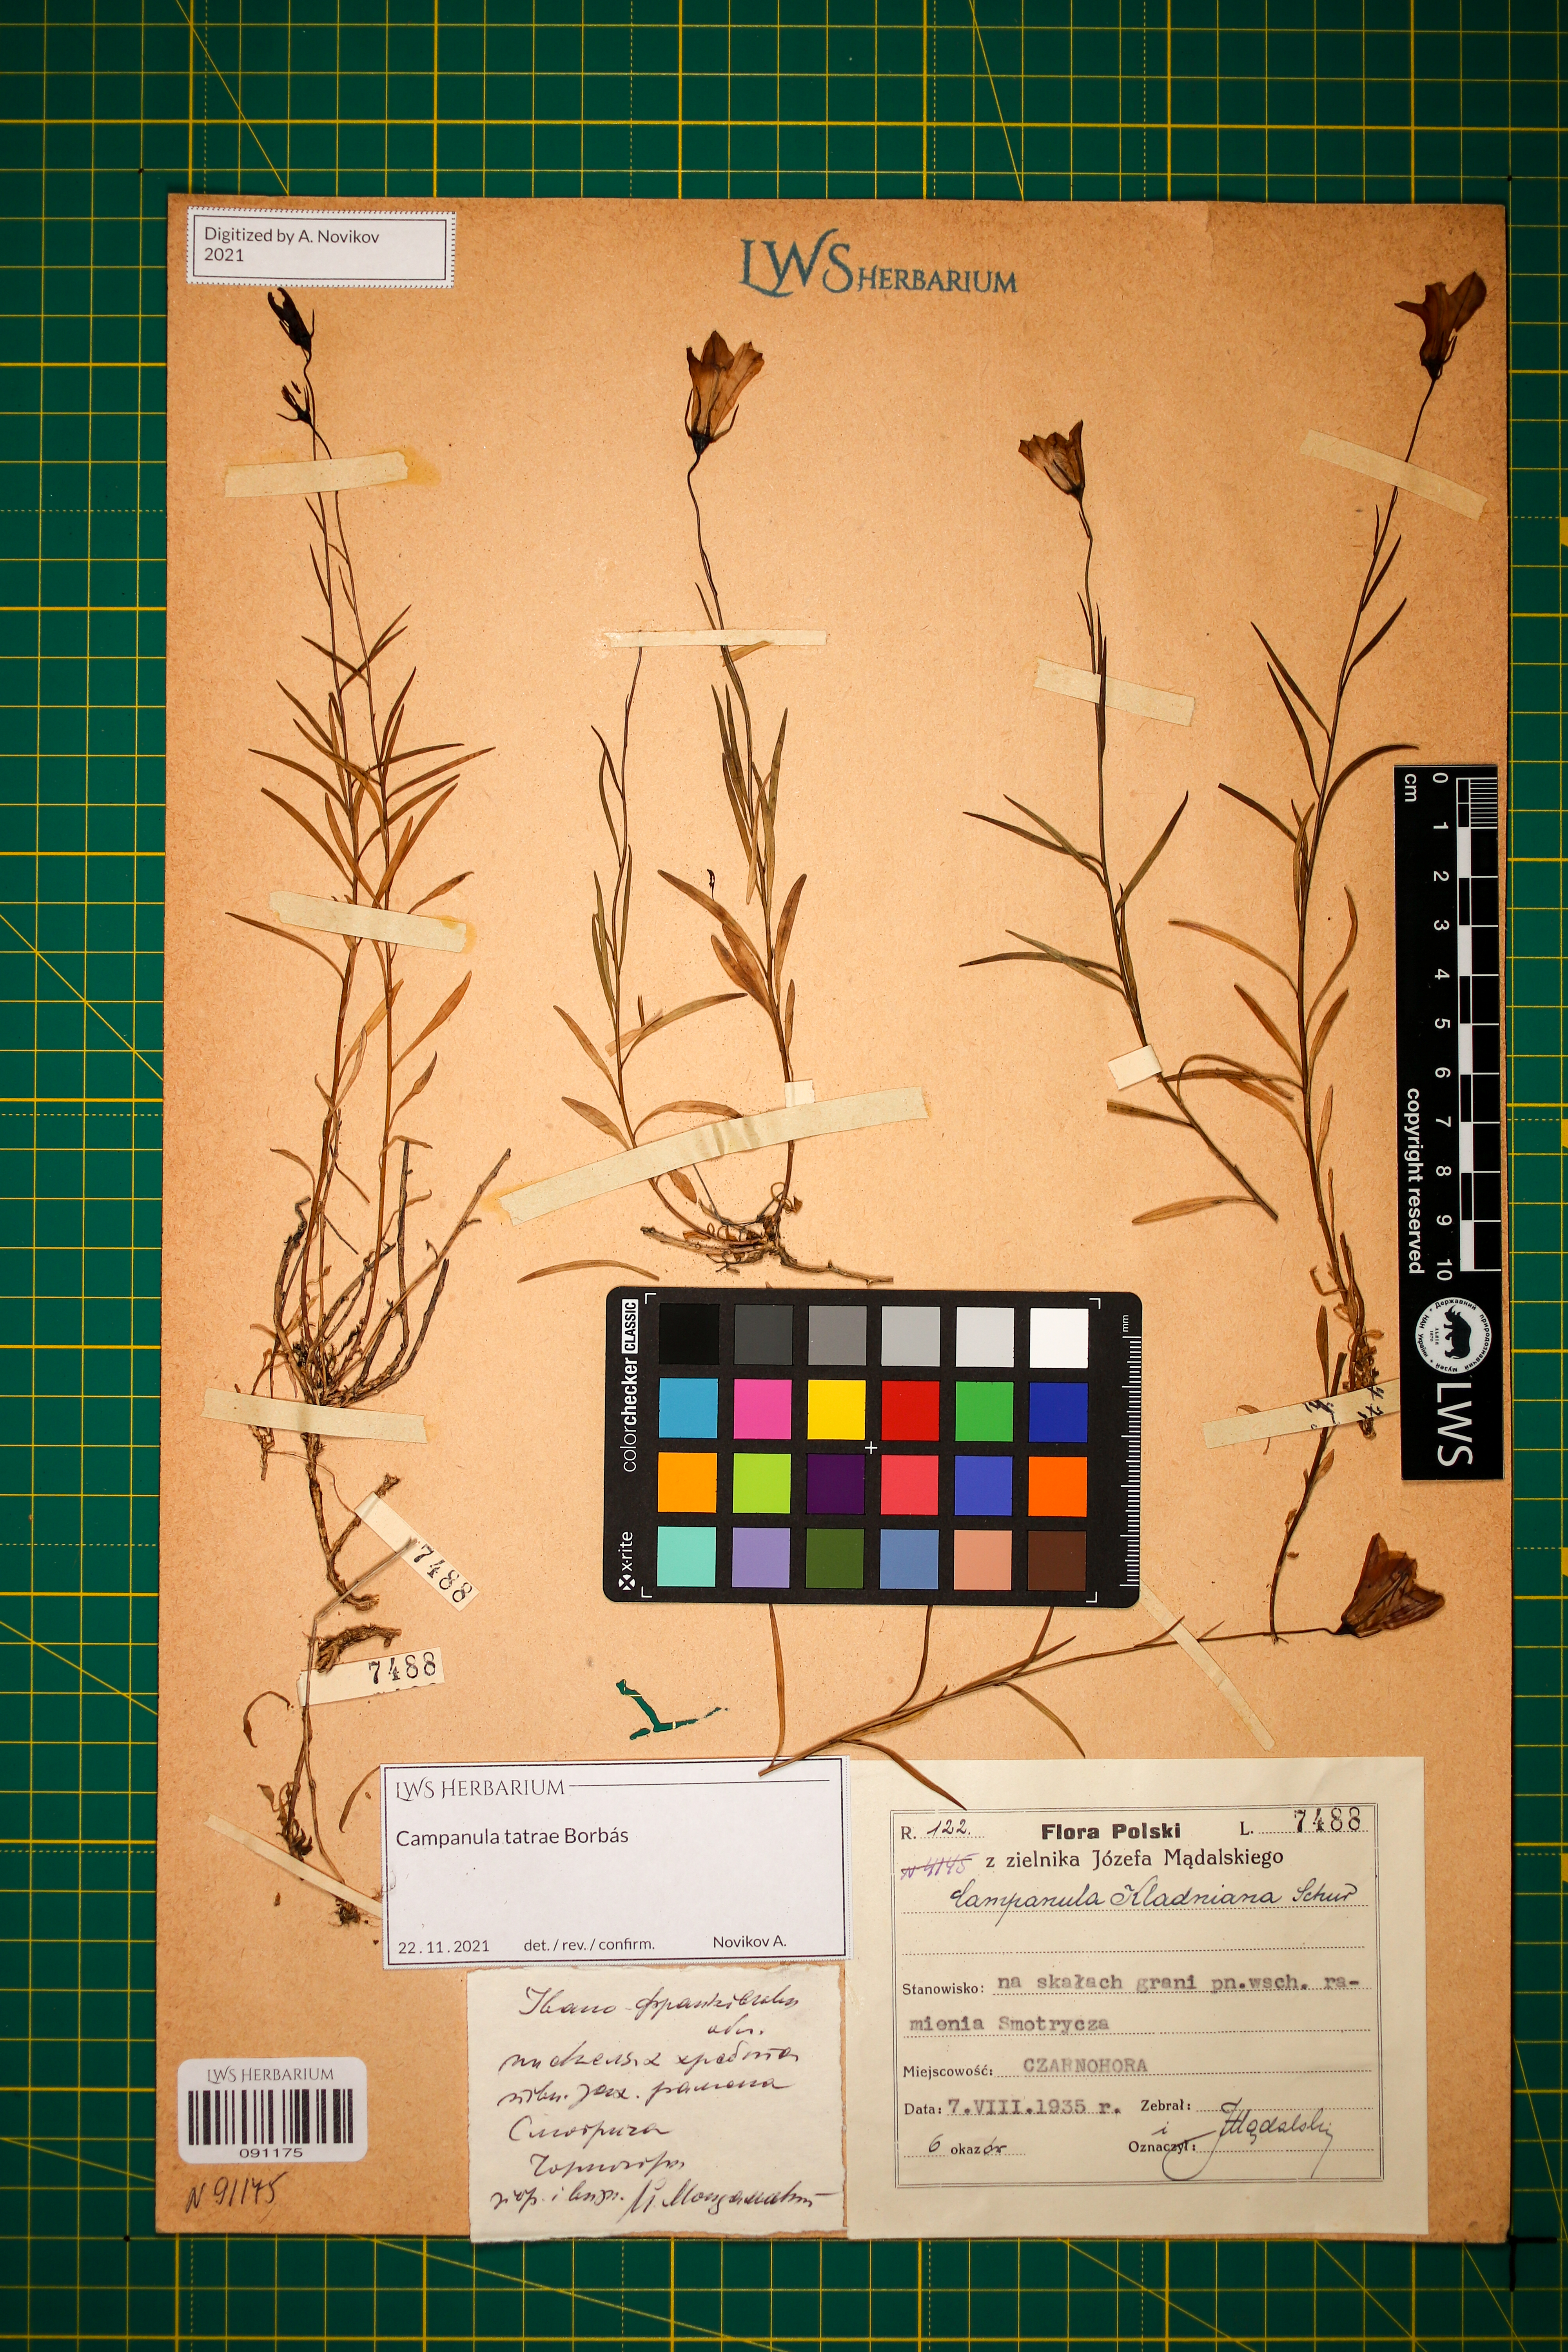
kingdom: Plantae
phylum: Tracheophyta
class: Magnoliopsida
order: Asterales
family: Campanulaceae
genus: Campanula
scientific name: Campanula kladniana
